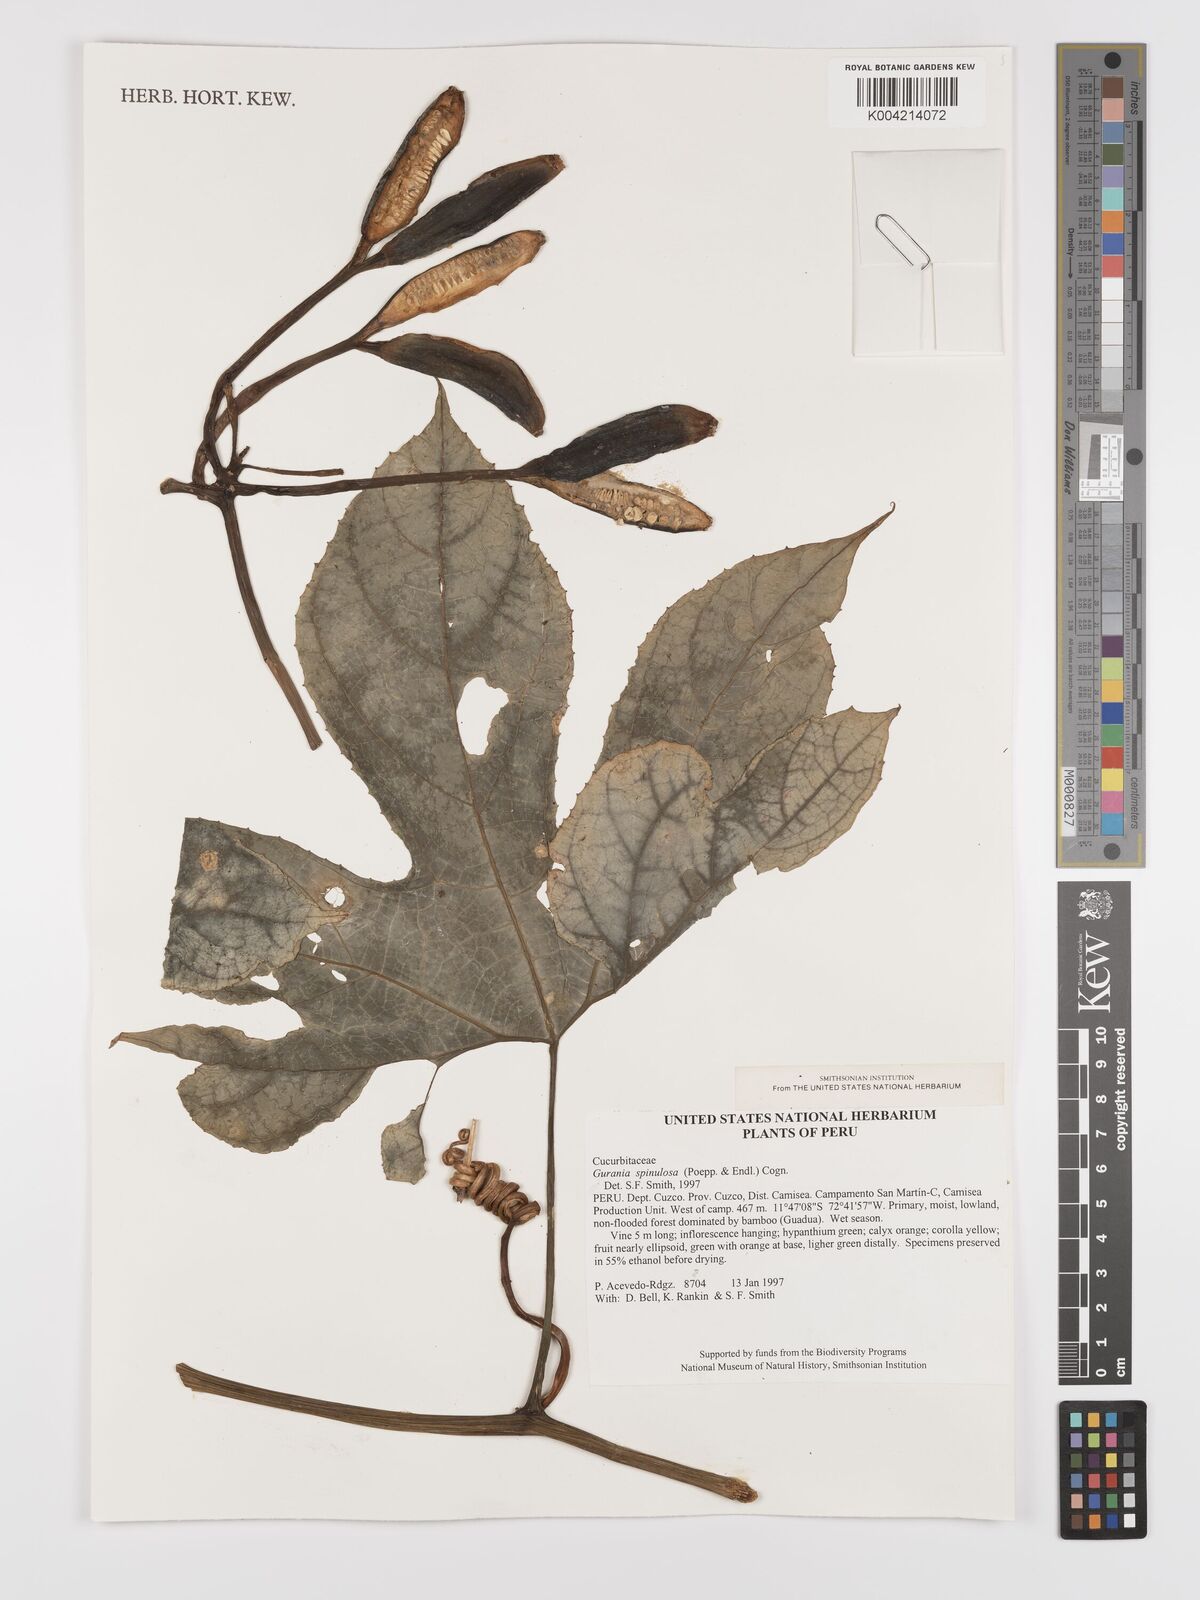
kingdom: Plantae
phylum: Tracheophyta
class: Magnoliopsida
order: Cucurbitales
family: Cucurbitaceae
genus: Gurania
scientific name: Gurania lobata
